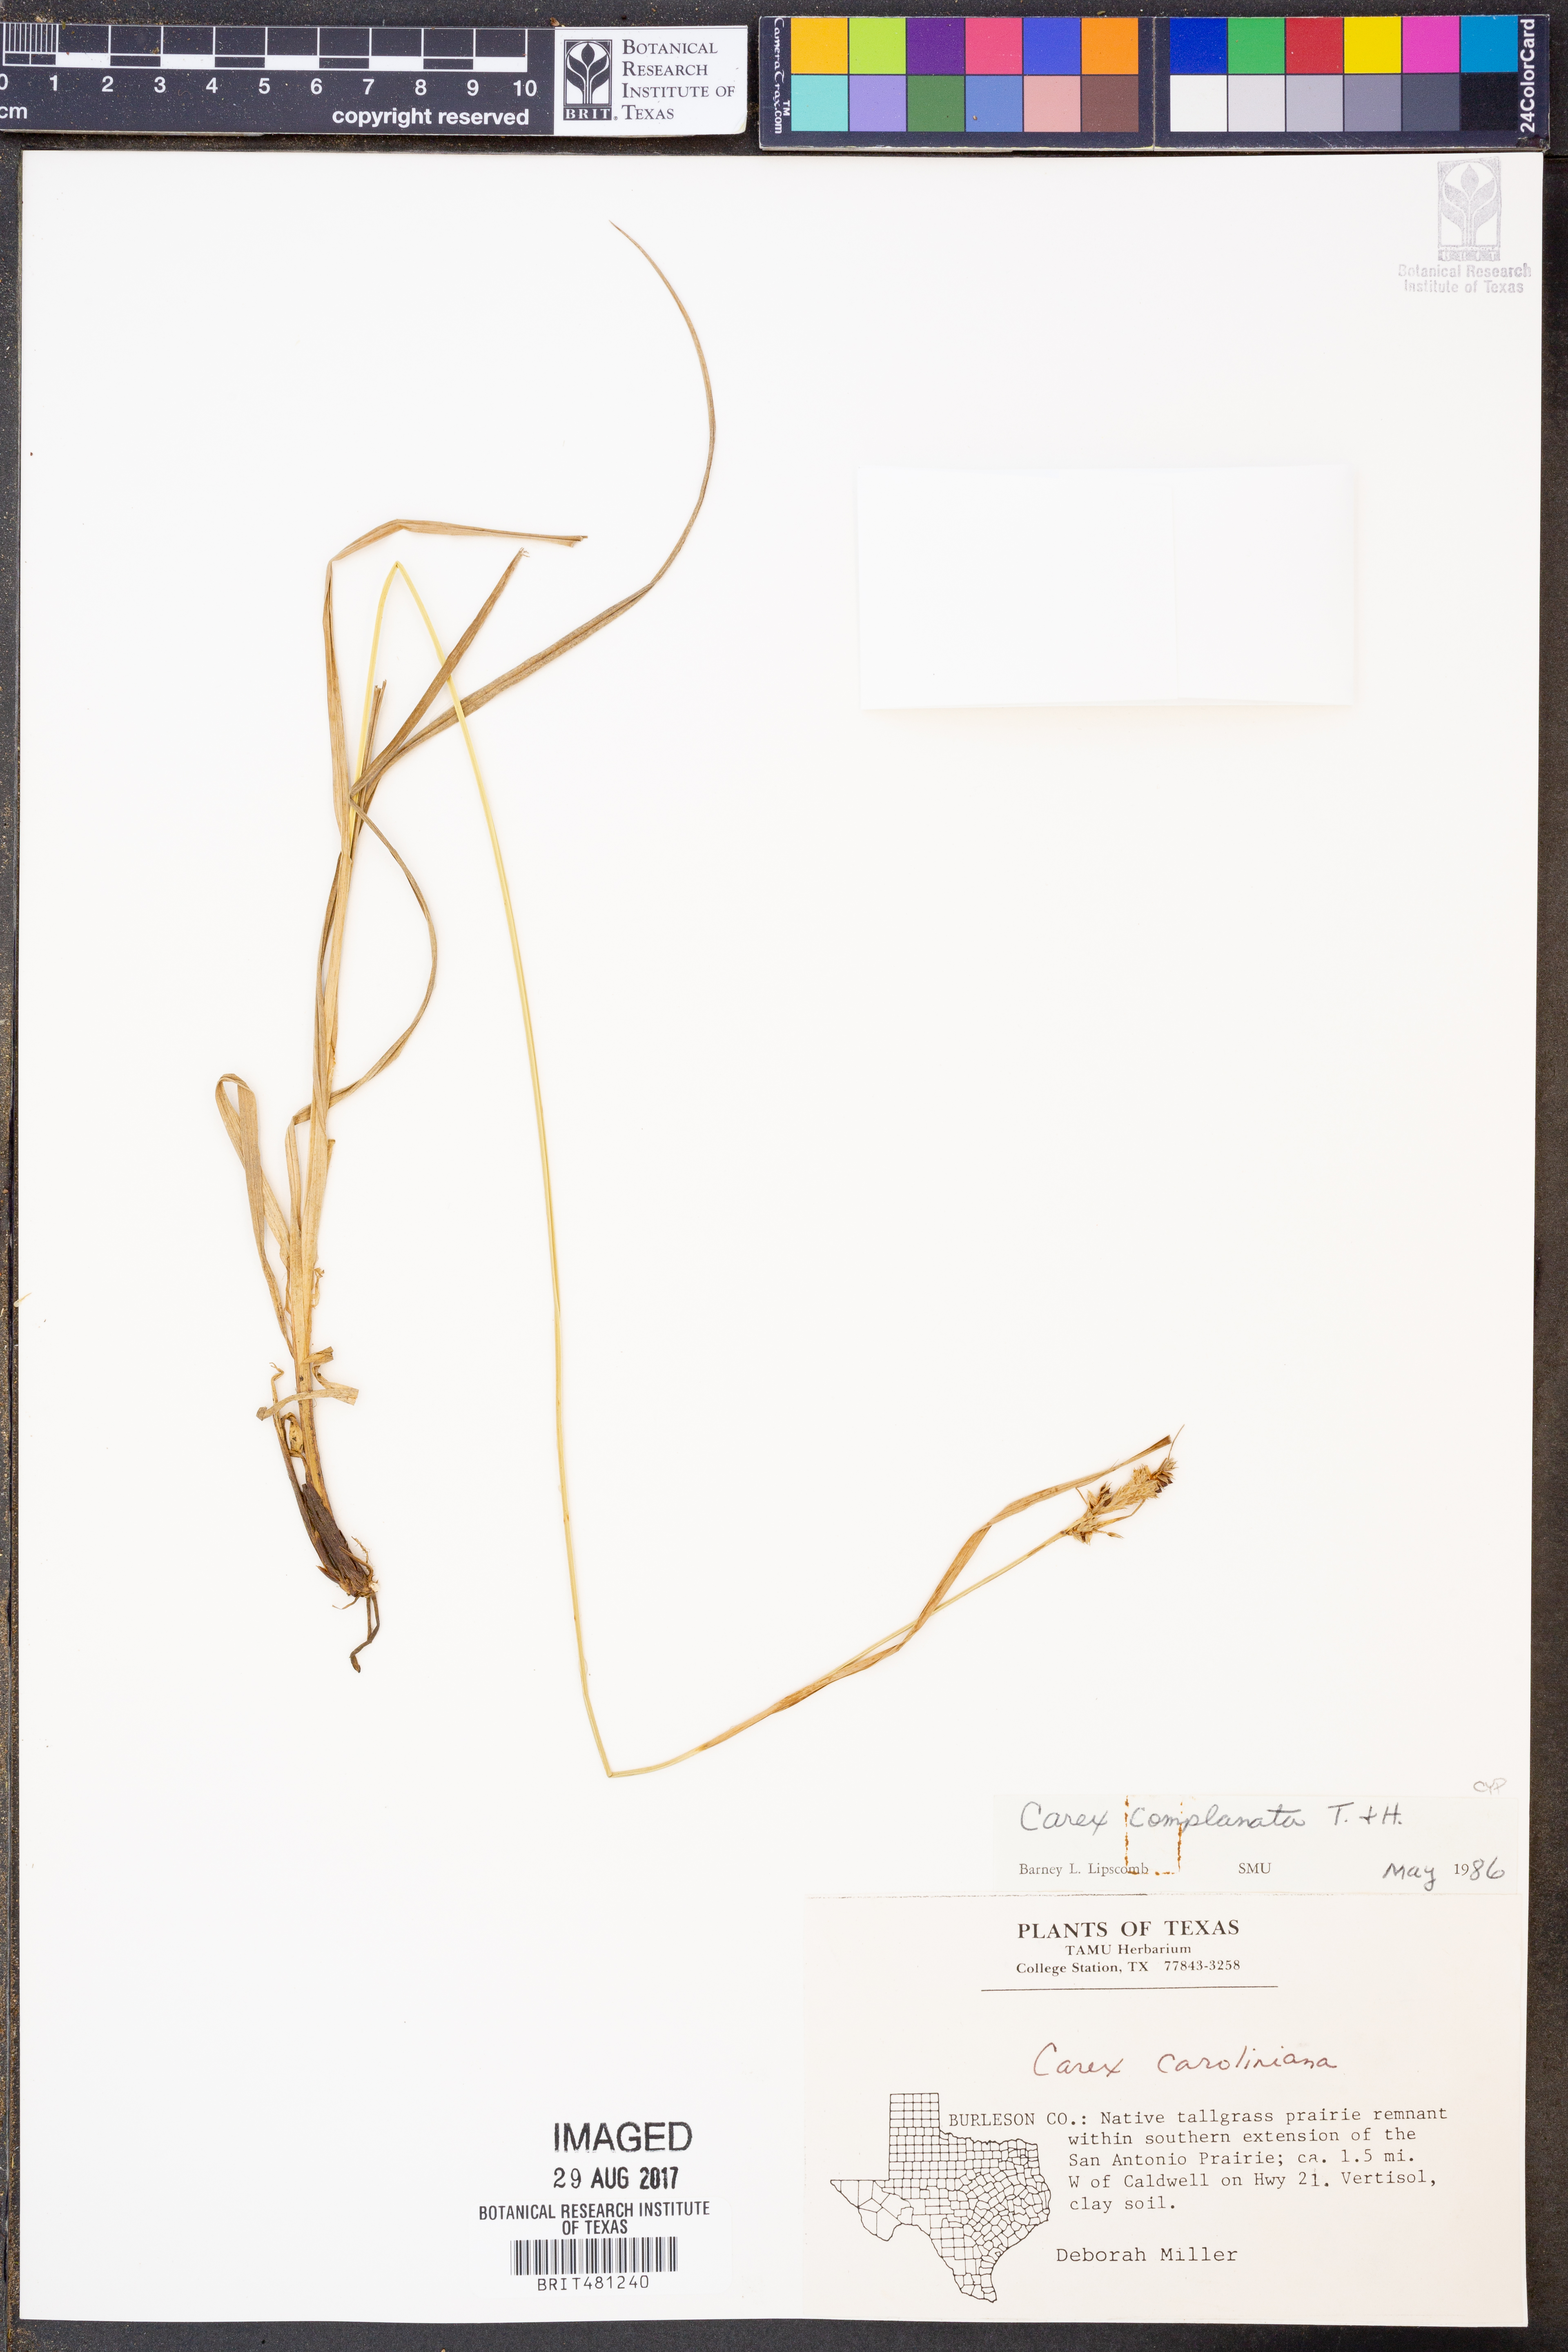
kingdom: Plantae
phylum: Tracheophyta
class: Liliopsida
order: Poales
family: Cyperaceae
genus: Carex
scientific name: Carex complanata
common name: Hirsute sedge
